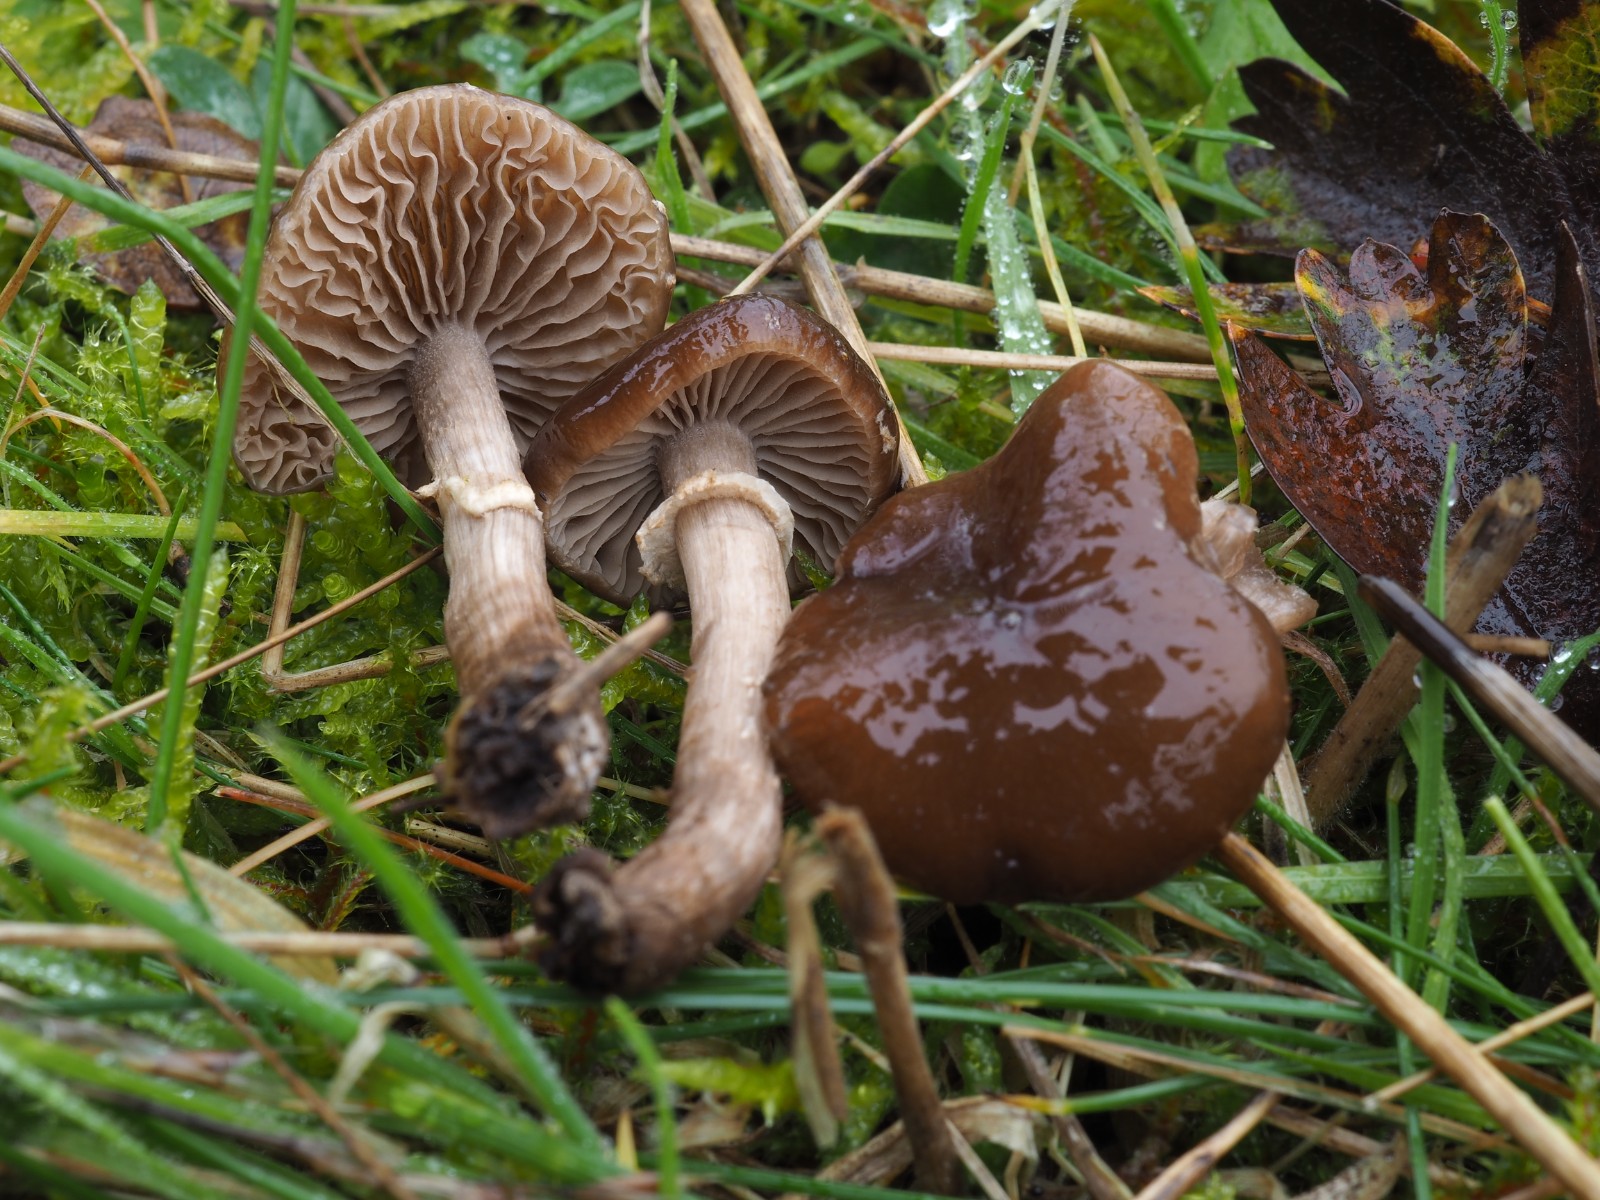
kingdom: Fungi
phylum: Basidiomycota
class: Agaricomycetes
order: Agaricales
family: Tubariaceae
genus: Cyclocybe
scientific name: Cyclocybe erebia
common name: mørk agerhat
